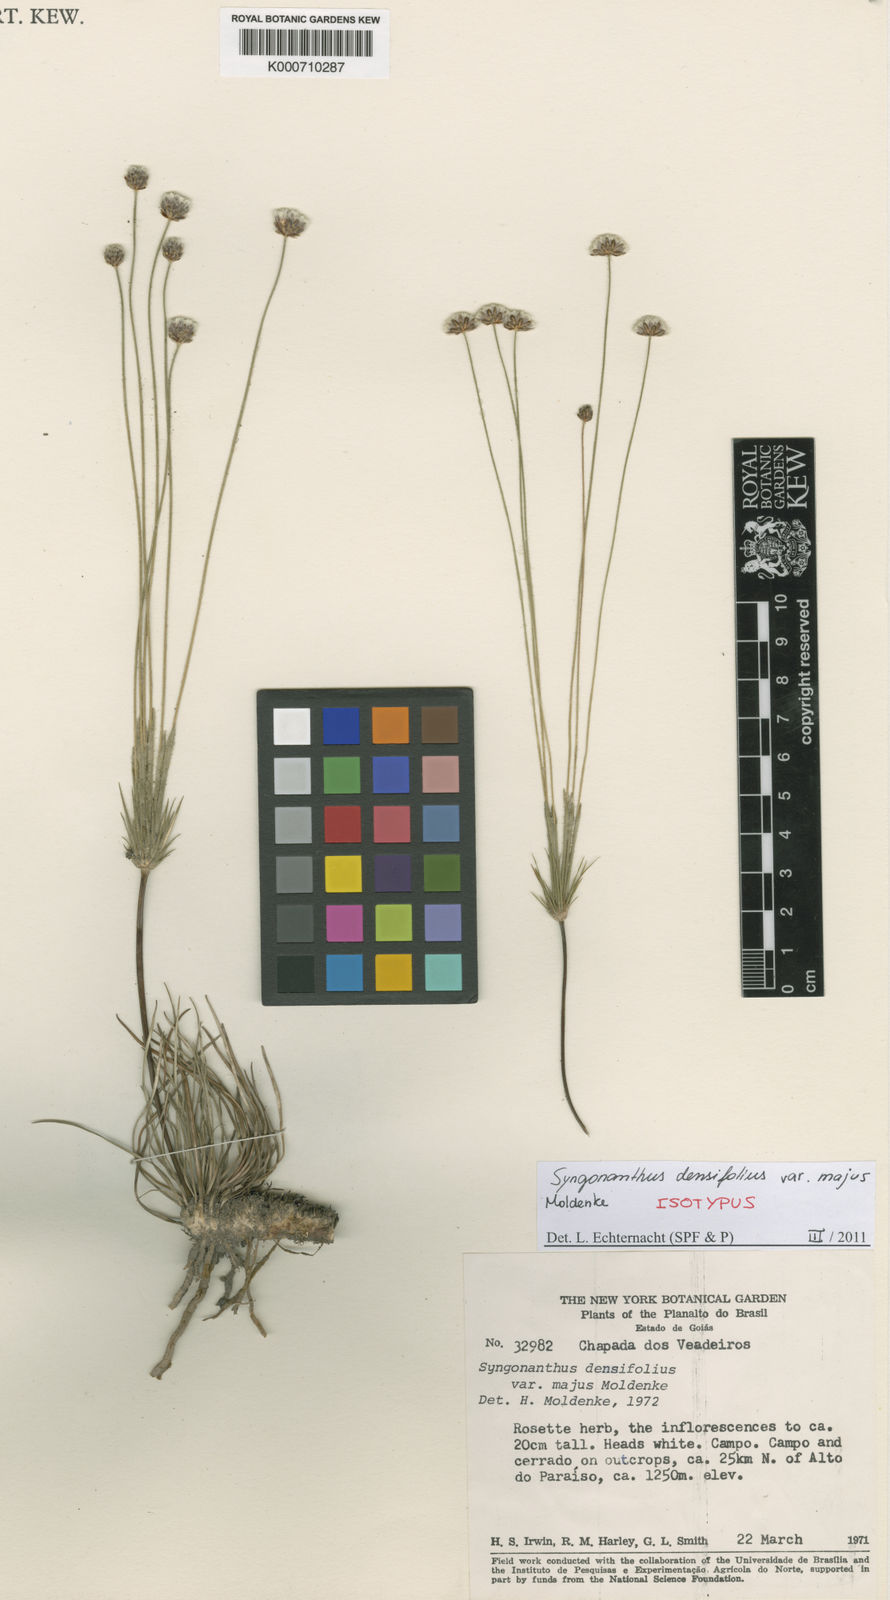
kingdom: Plantae
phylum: Tracheophyta
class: Liliopsida
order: Poales
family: Eriocaulaceae
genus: Syngonanthus
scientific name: Syngonanthus densifolius
